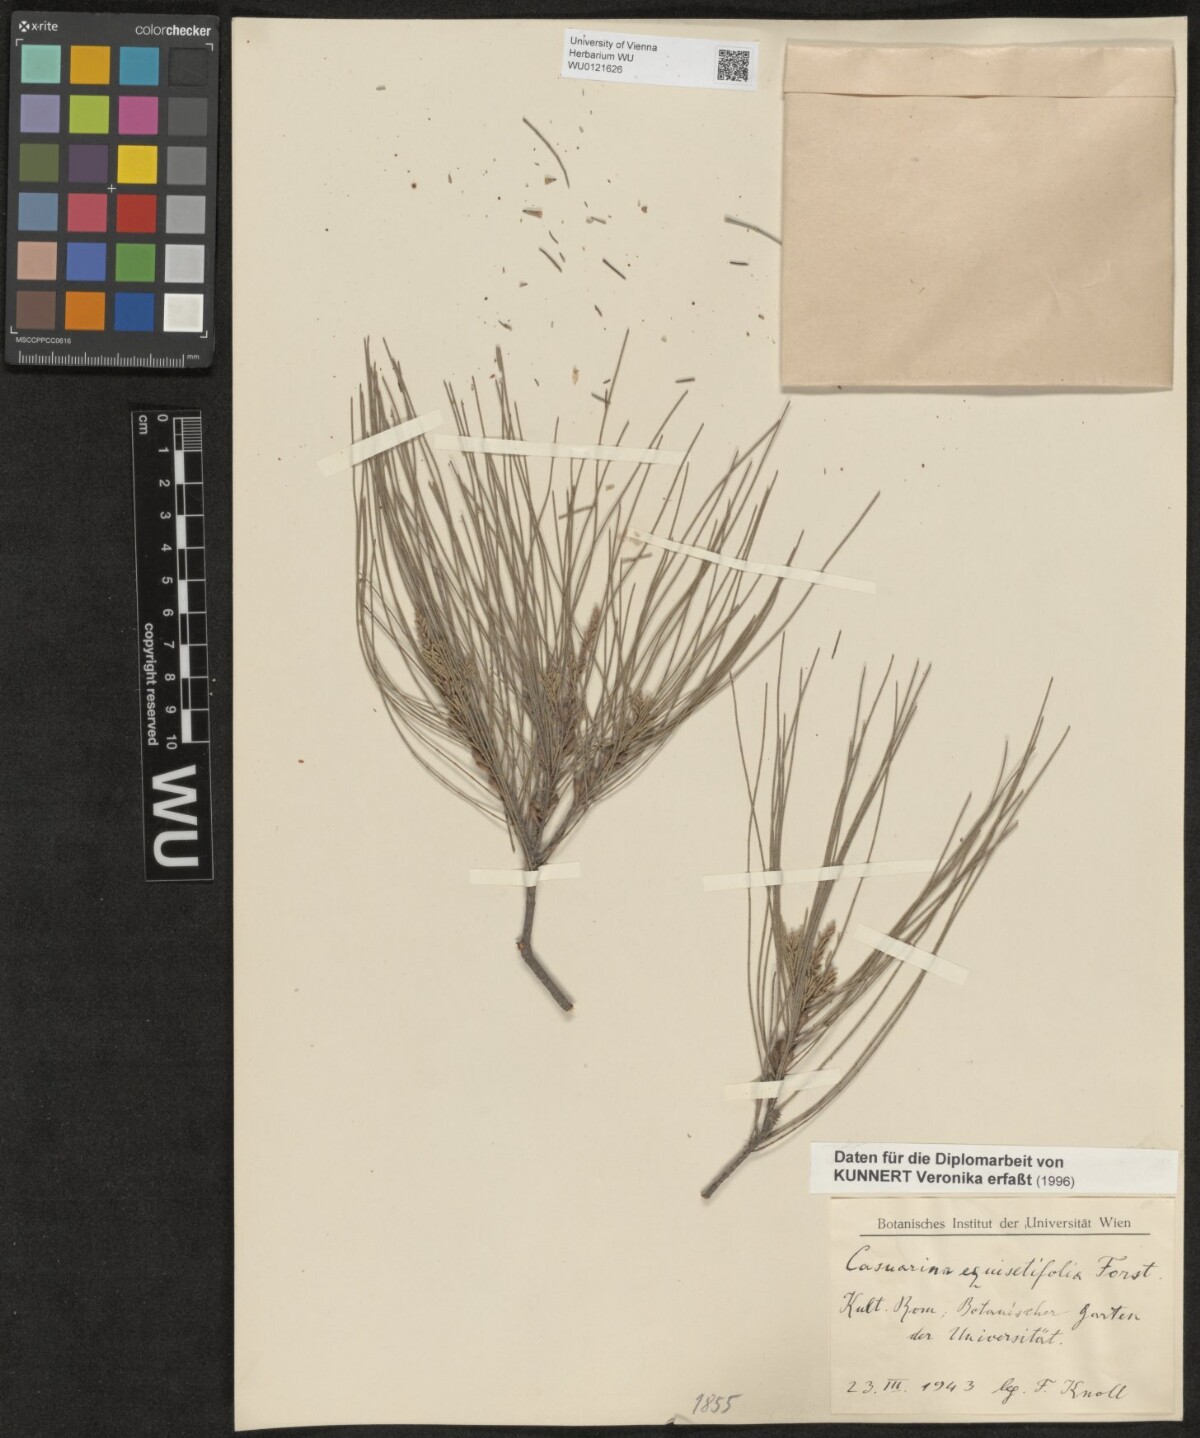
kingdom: Plantae
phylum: Tracheophyta
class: Magnoliopsida
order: Fagales
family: Casuarinaceae
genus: Casuarina
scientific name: Casuarina equisetifolia
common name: Beach sheoak
